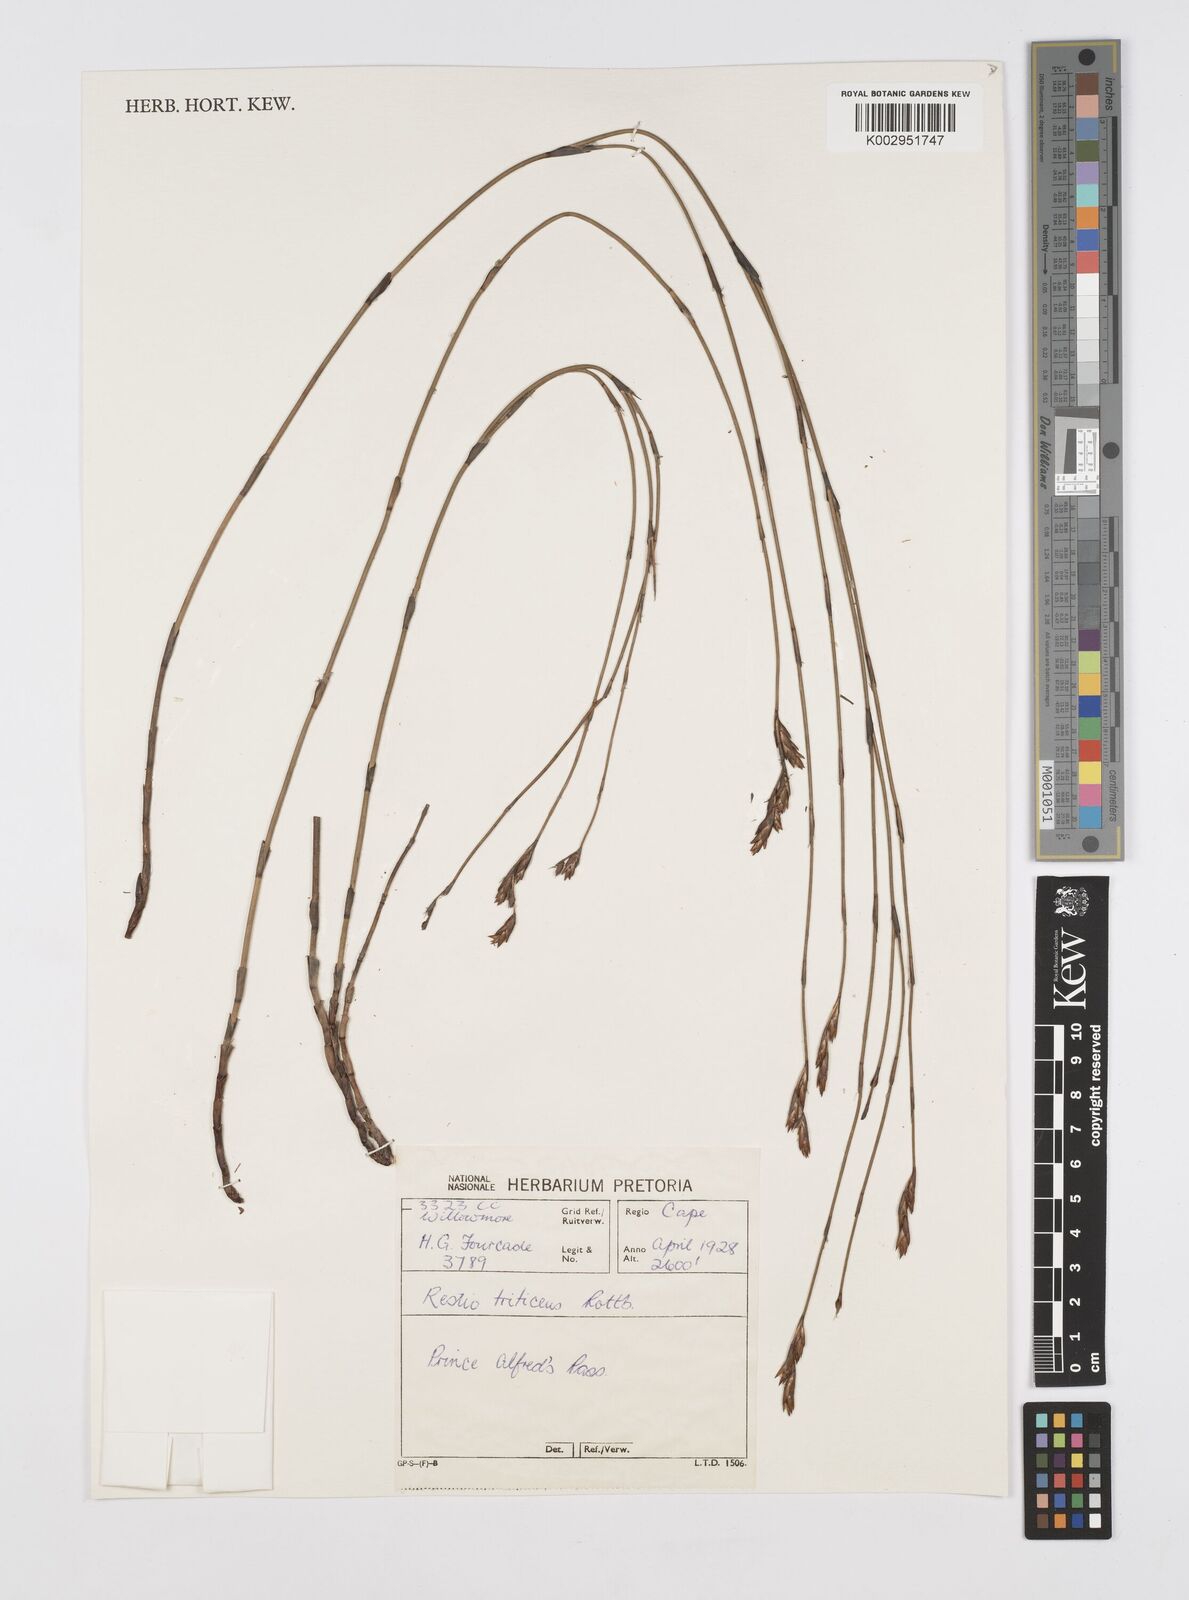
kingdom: Plantae
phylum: Tracheophyta
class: Liliopsida
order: Poales
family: Restionaceae
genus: Restio
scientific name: Restio triticeus
